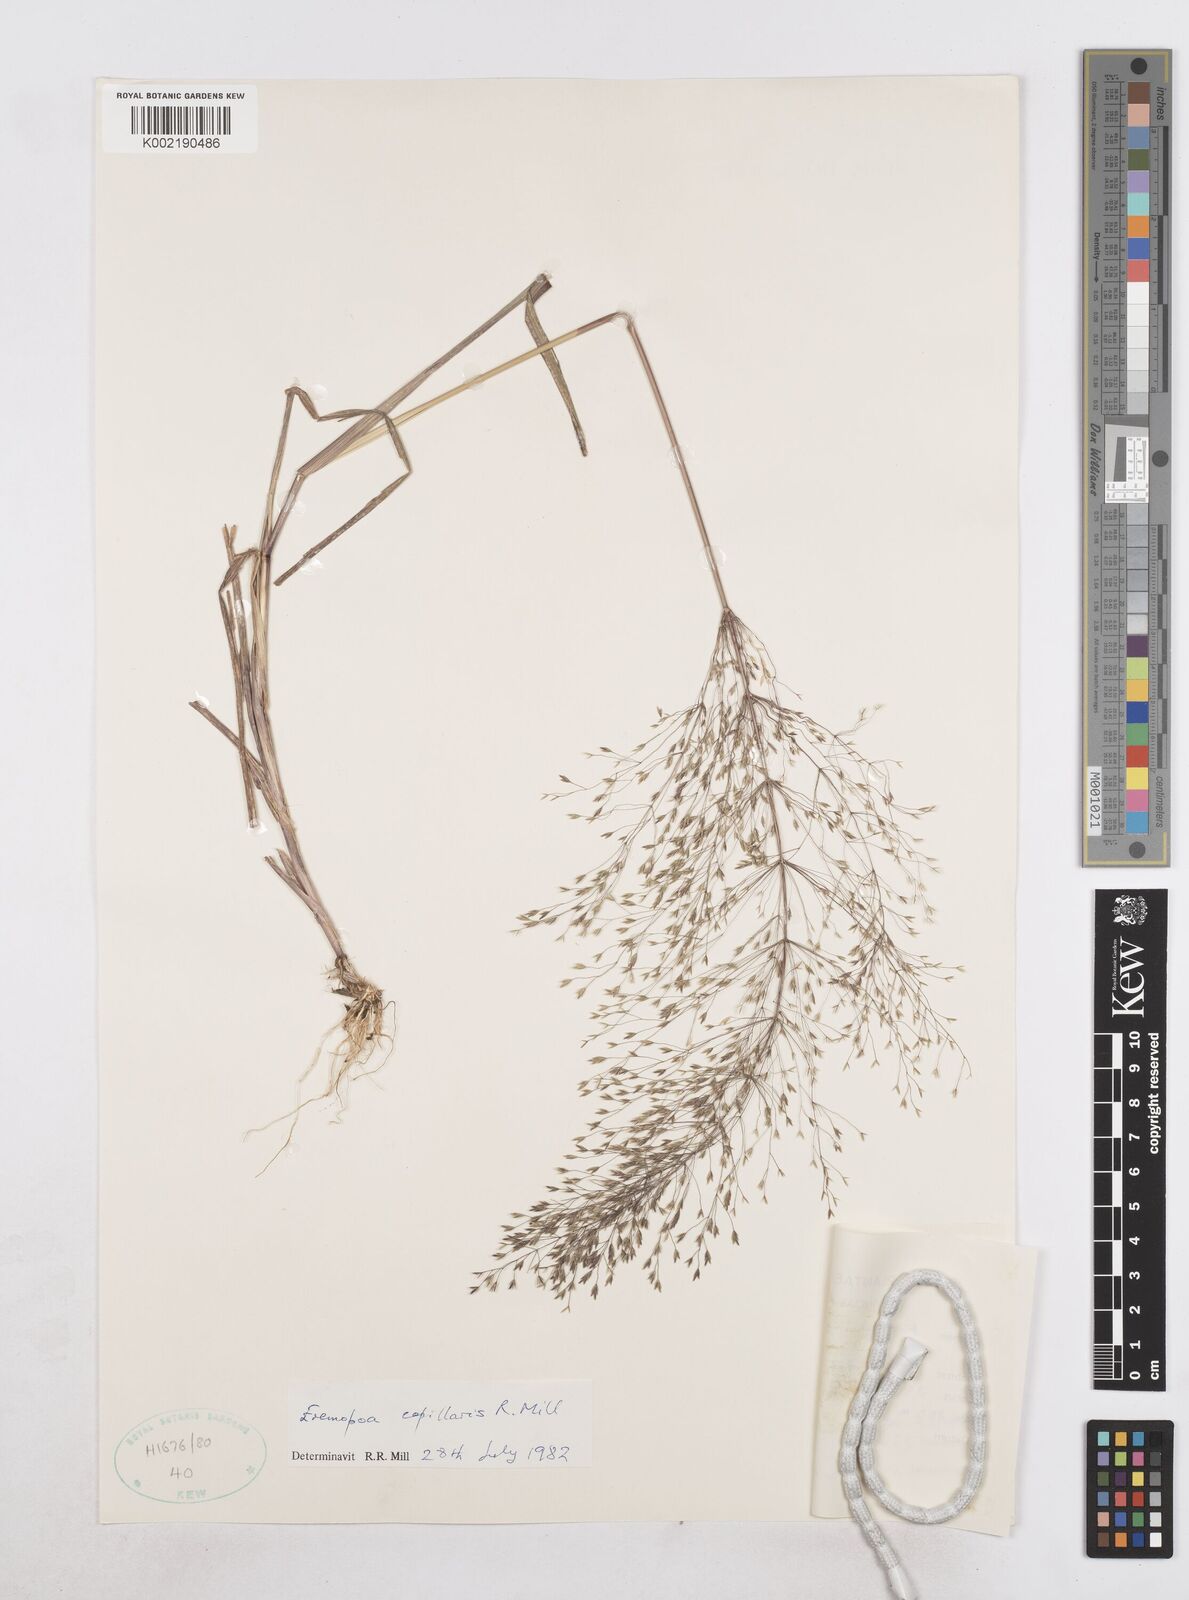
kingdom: Plantae
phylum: Tracheophyta
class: Liliopsida
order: Poales
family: Poaceae
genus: Poa
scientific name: Poa millii
